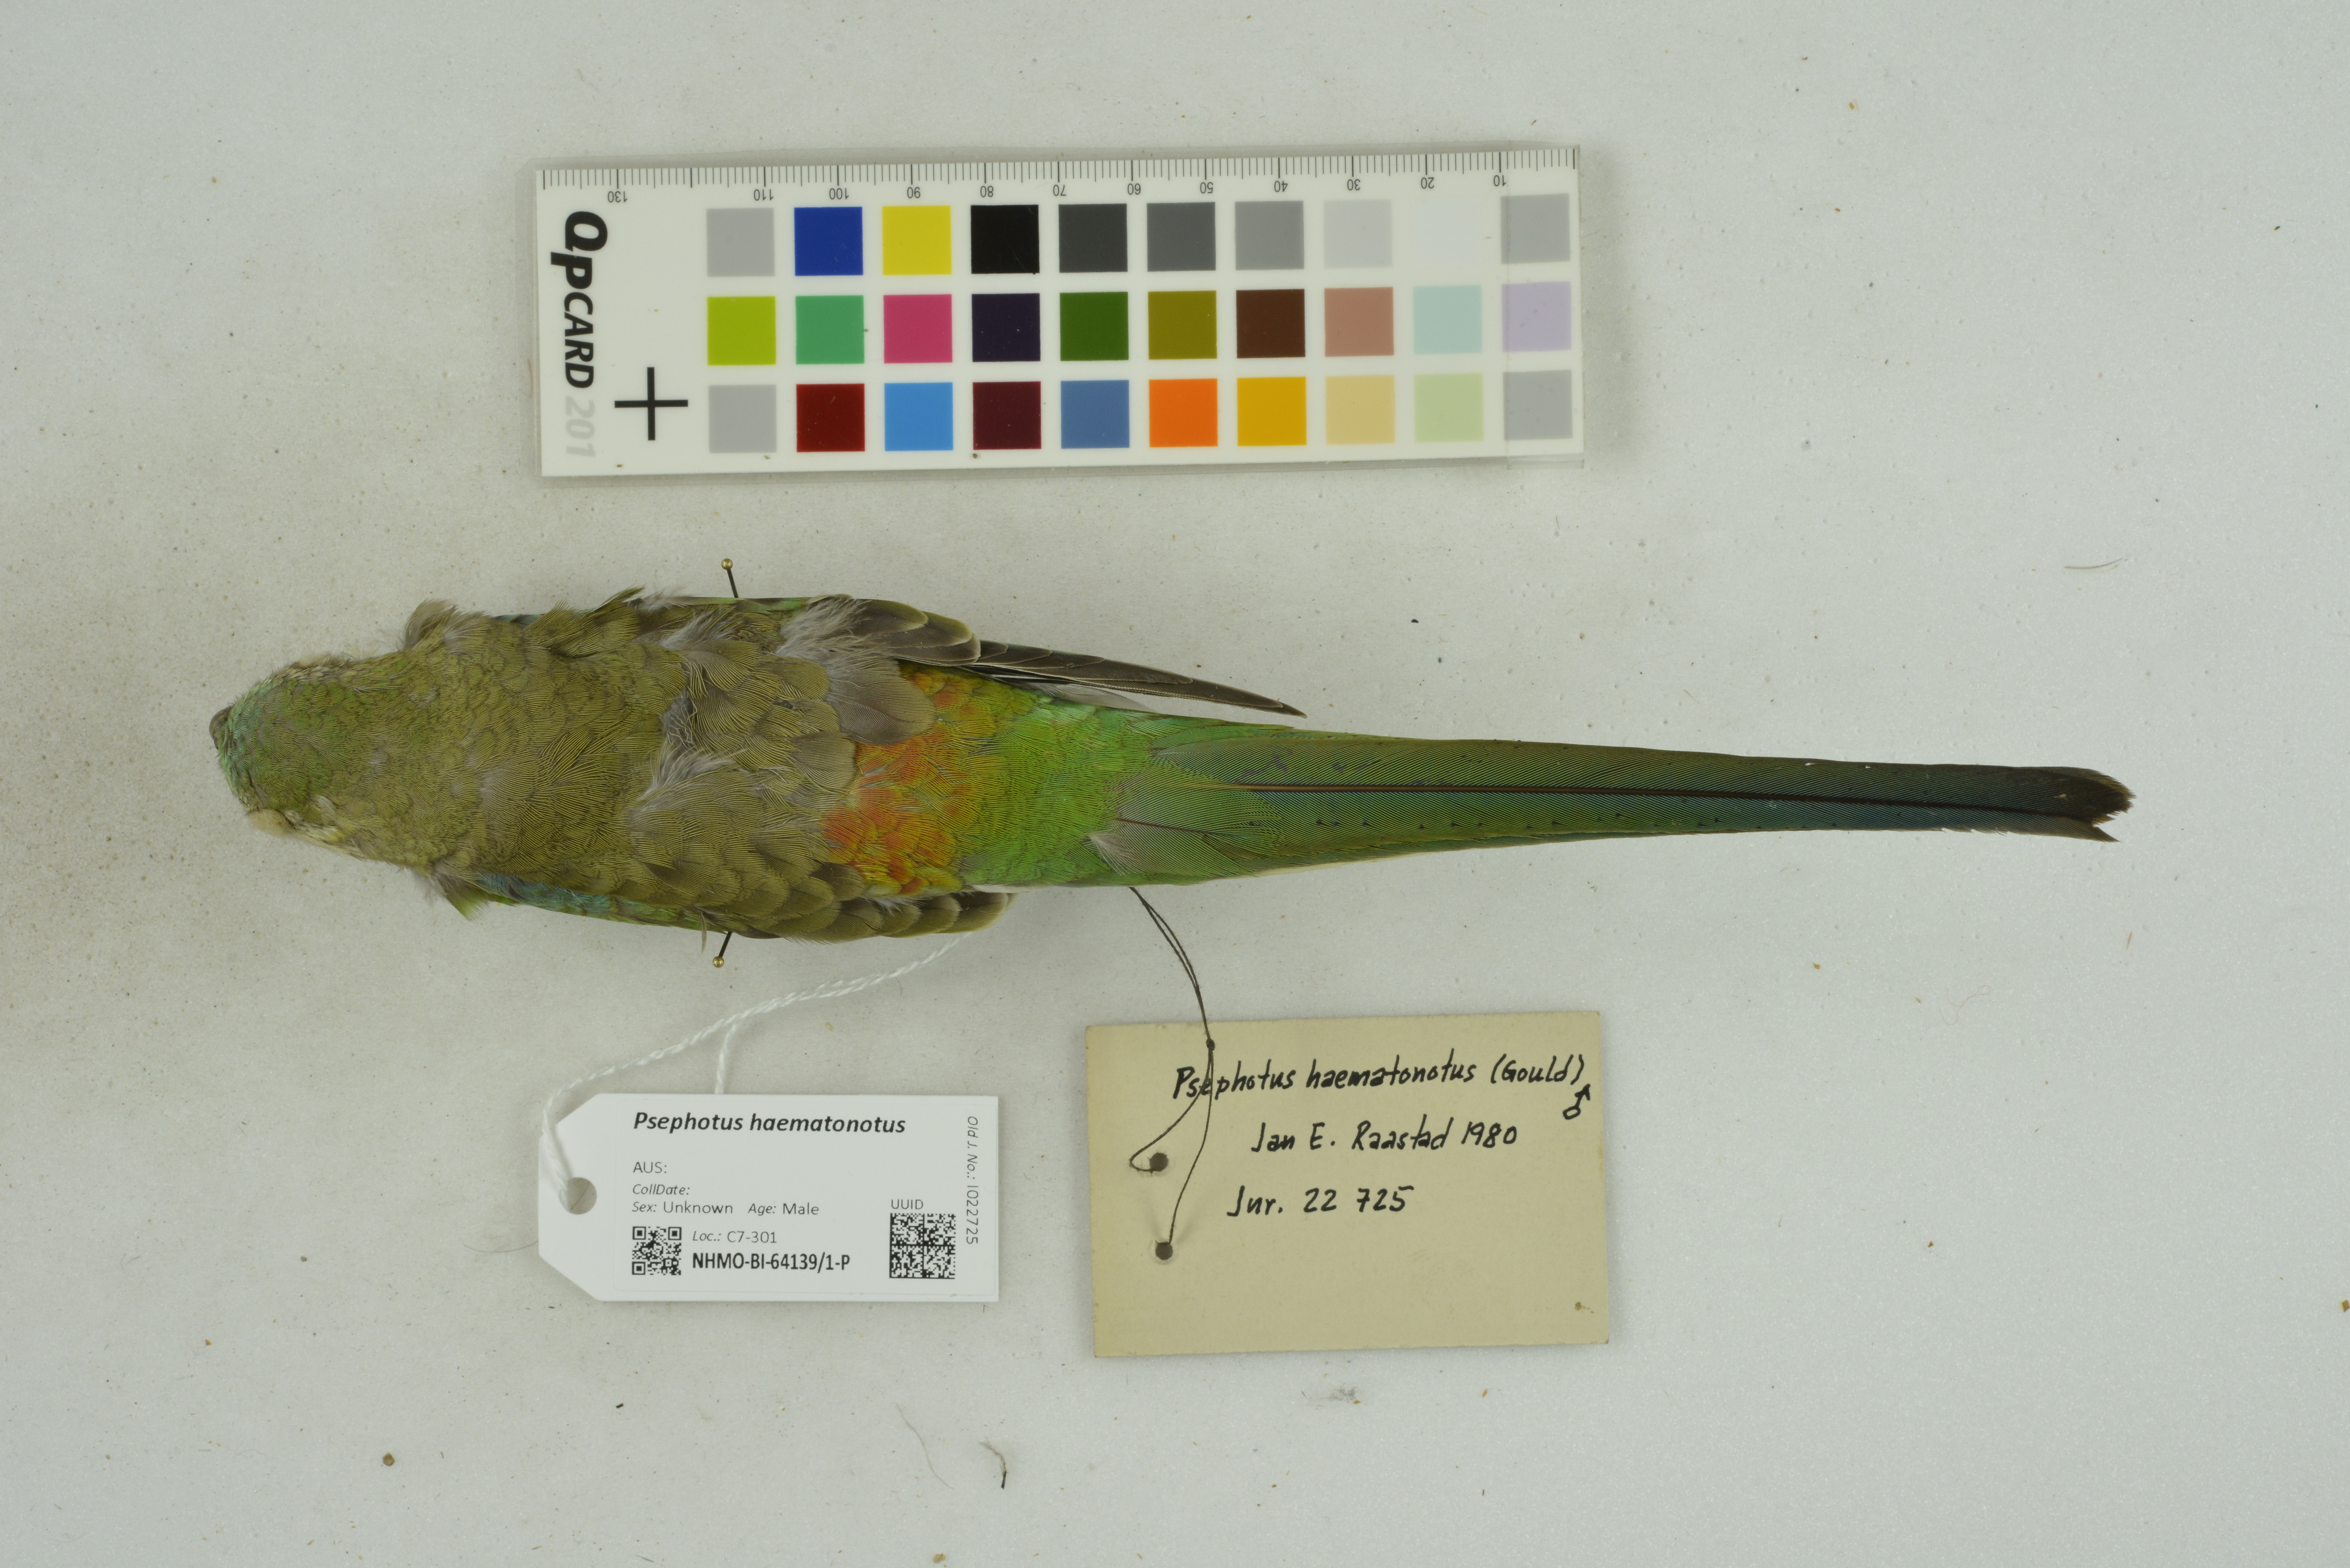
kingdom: Animalia
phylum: Chordata
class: Aves
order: Psittaciformes
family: Psittacidae
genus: Psephotus
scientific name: Psephotus haematonotus
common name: Red-rumped parrot
